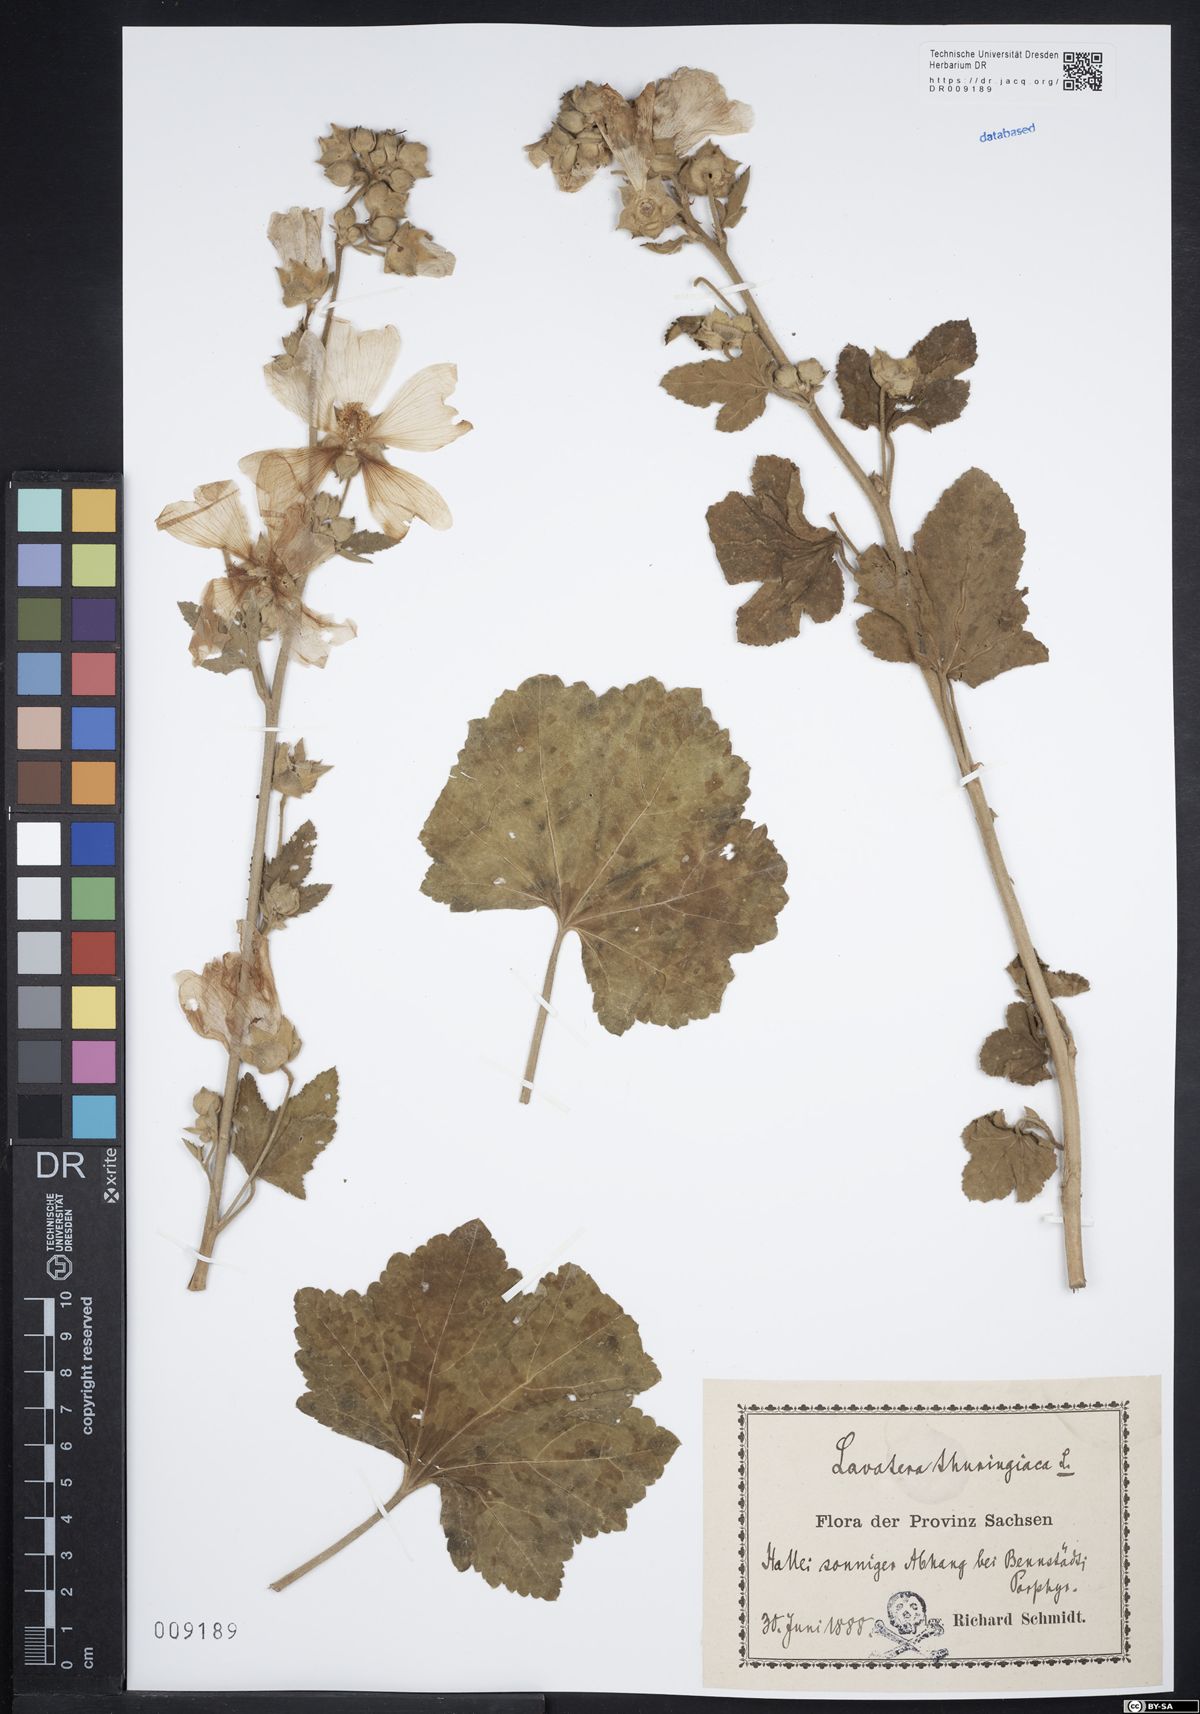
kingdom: Plantae
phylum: Tracheophyta
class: Magnoliopsida
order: Malvales
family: Malvaceae
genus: Malva
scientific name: Malva thuringiaca
